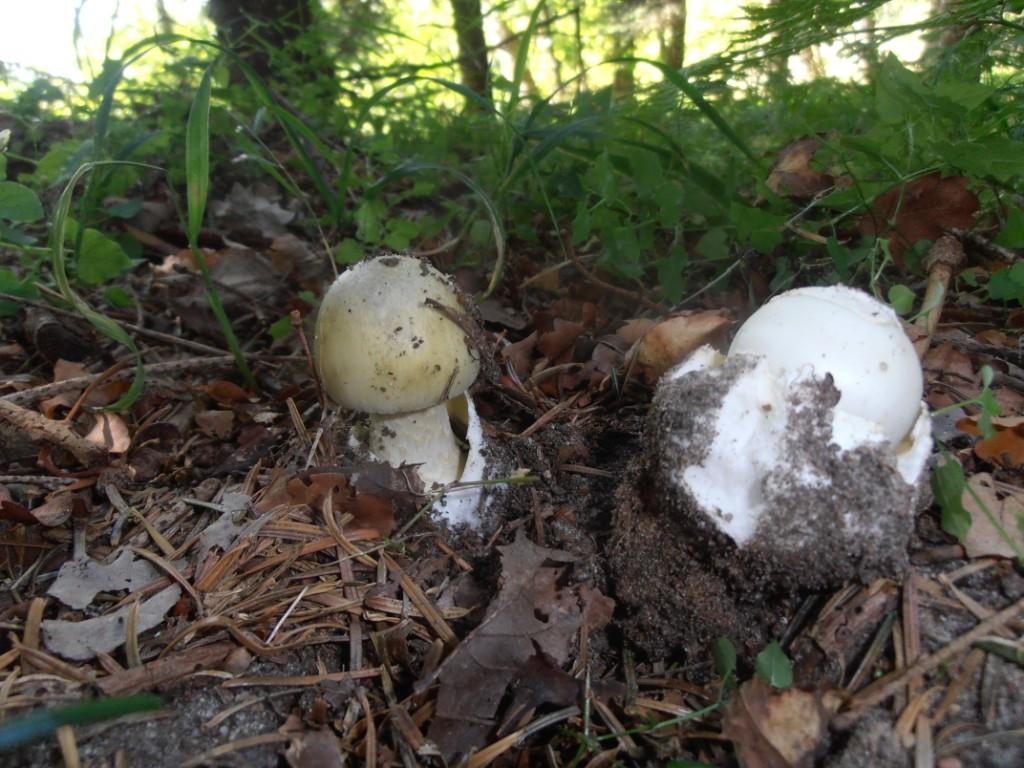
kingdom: Fungi
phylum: Basidiomycota
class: Agaricomycetes
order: Agaricales
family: Amanitaceae
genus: Amanita
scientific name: Amanita phalloides
